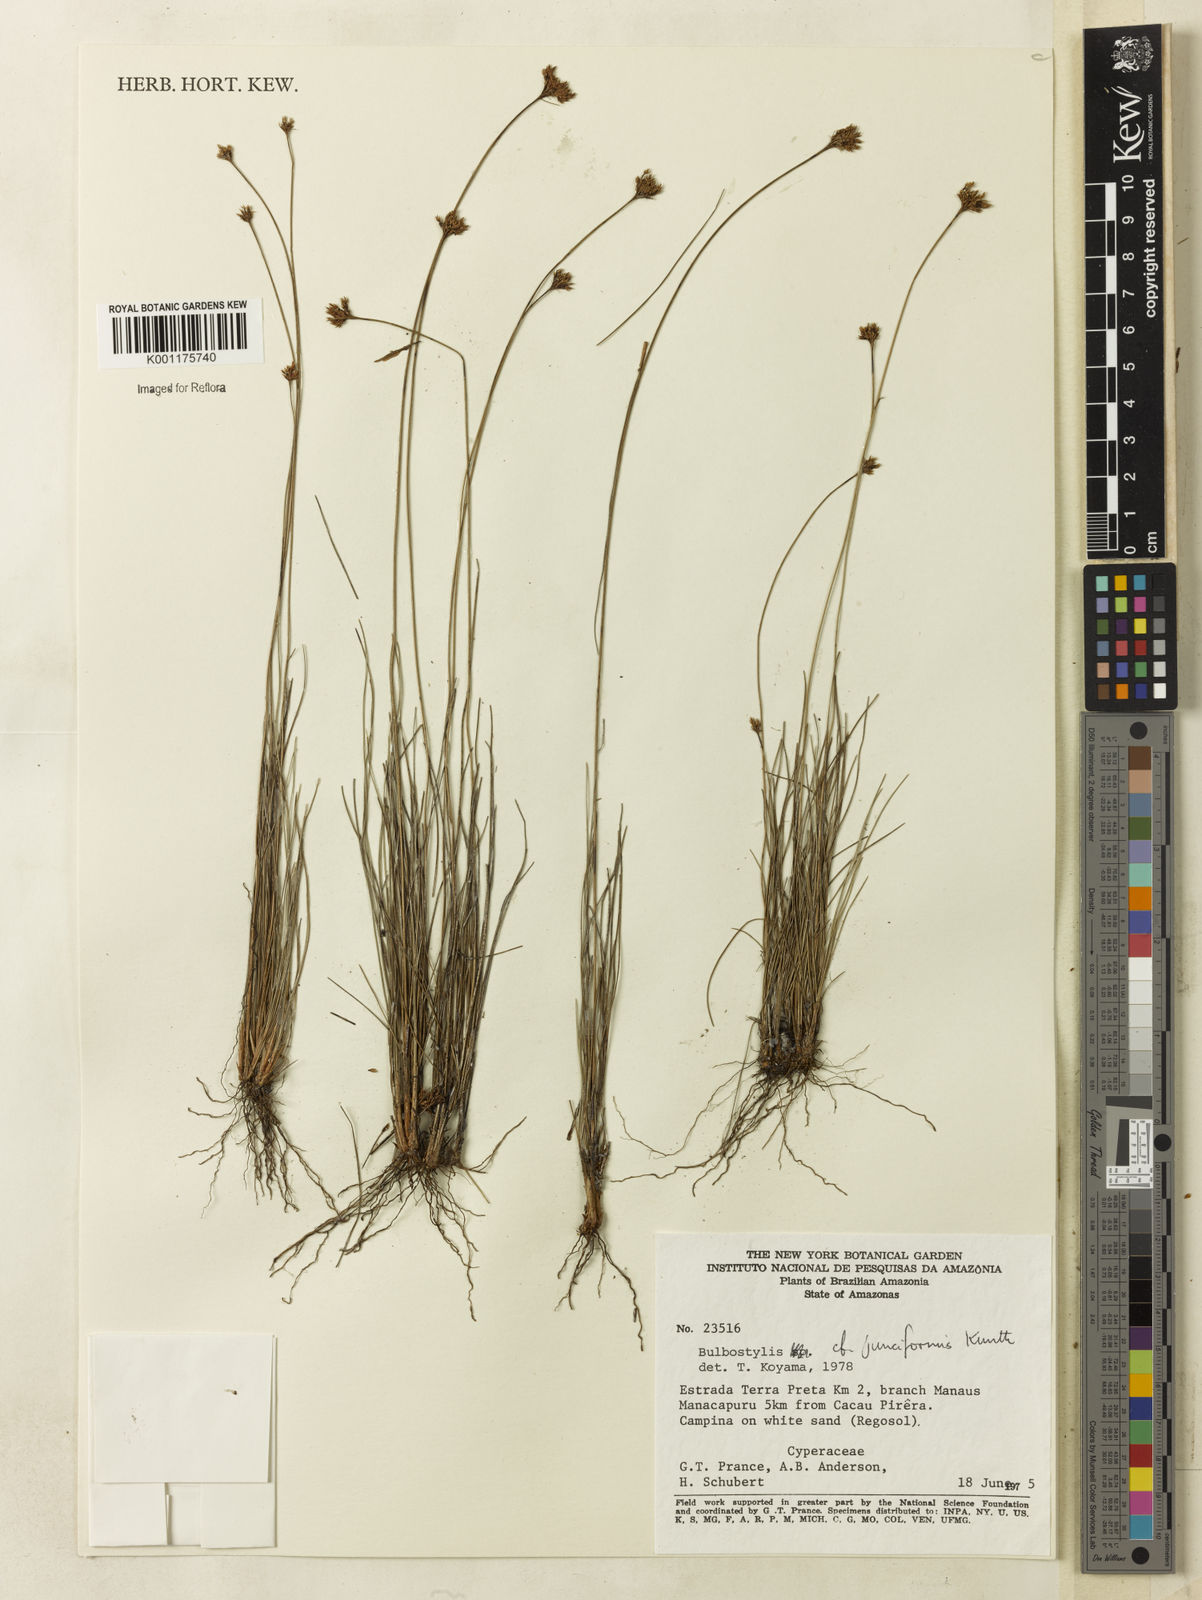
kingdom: Plantae
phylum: Tracheophyta
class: Liliopsida
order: Poales
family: Cyperaceae
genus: Bulbostylis
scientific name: Bulbostylis junciformis
